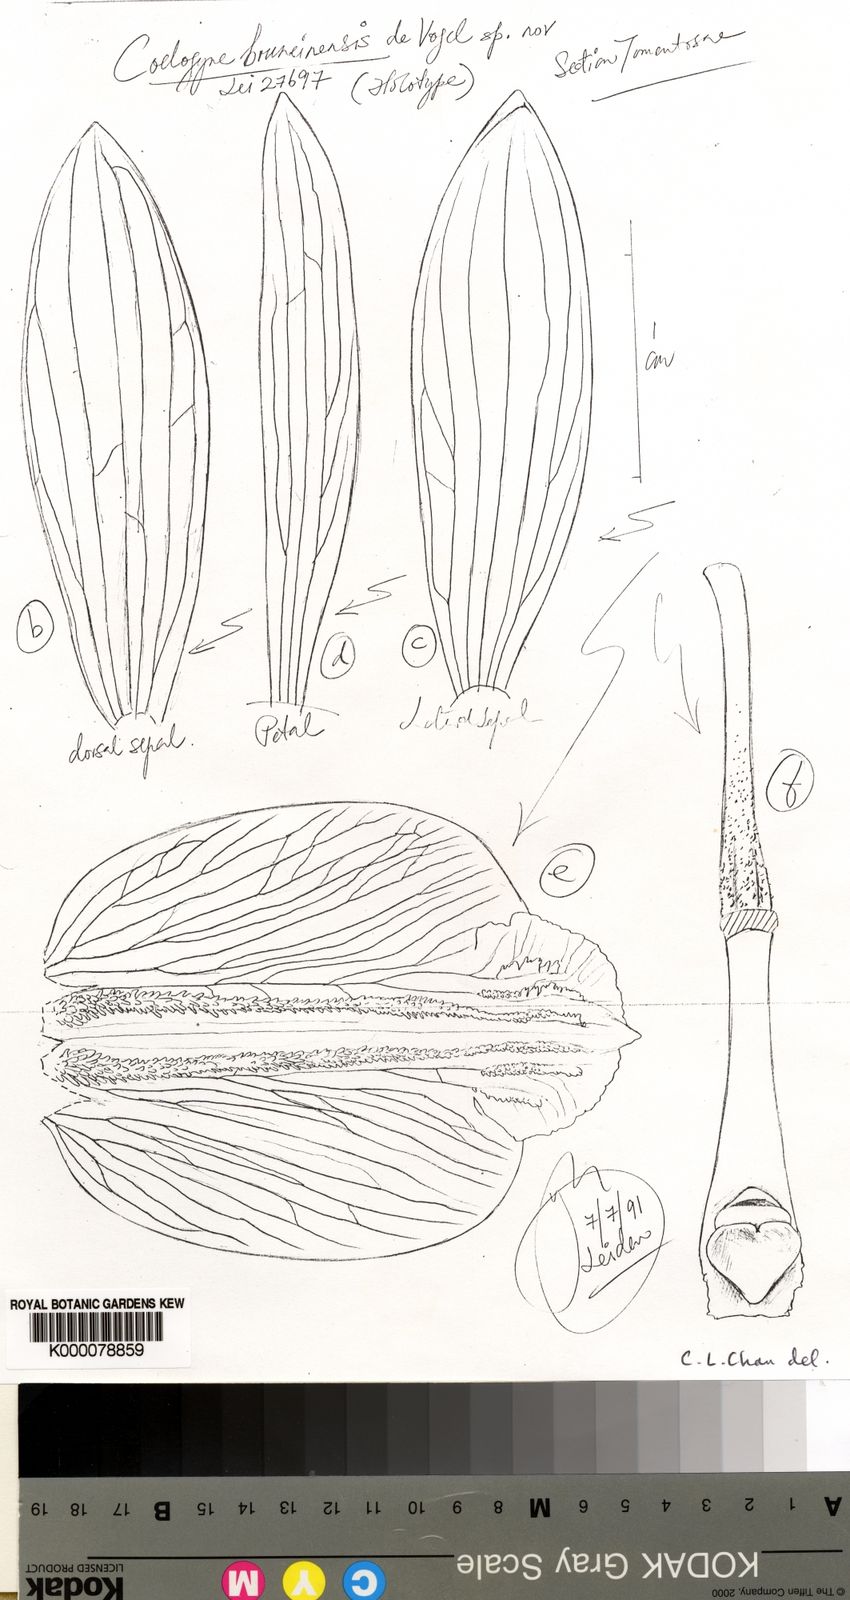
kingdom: Plantae
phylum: Tracheophyta
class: Liliopsida
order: Asparagales
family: Orchidaceae
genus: Coelogyne
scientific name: Coelogyne bruneiensis
